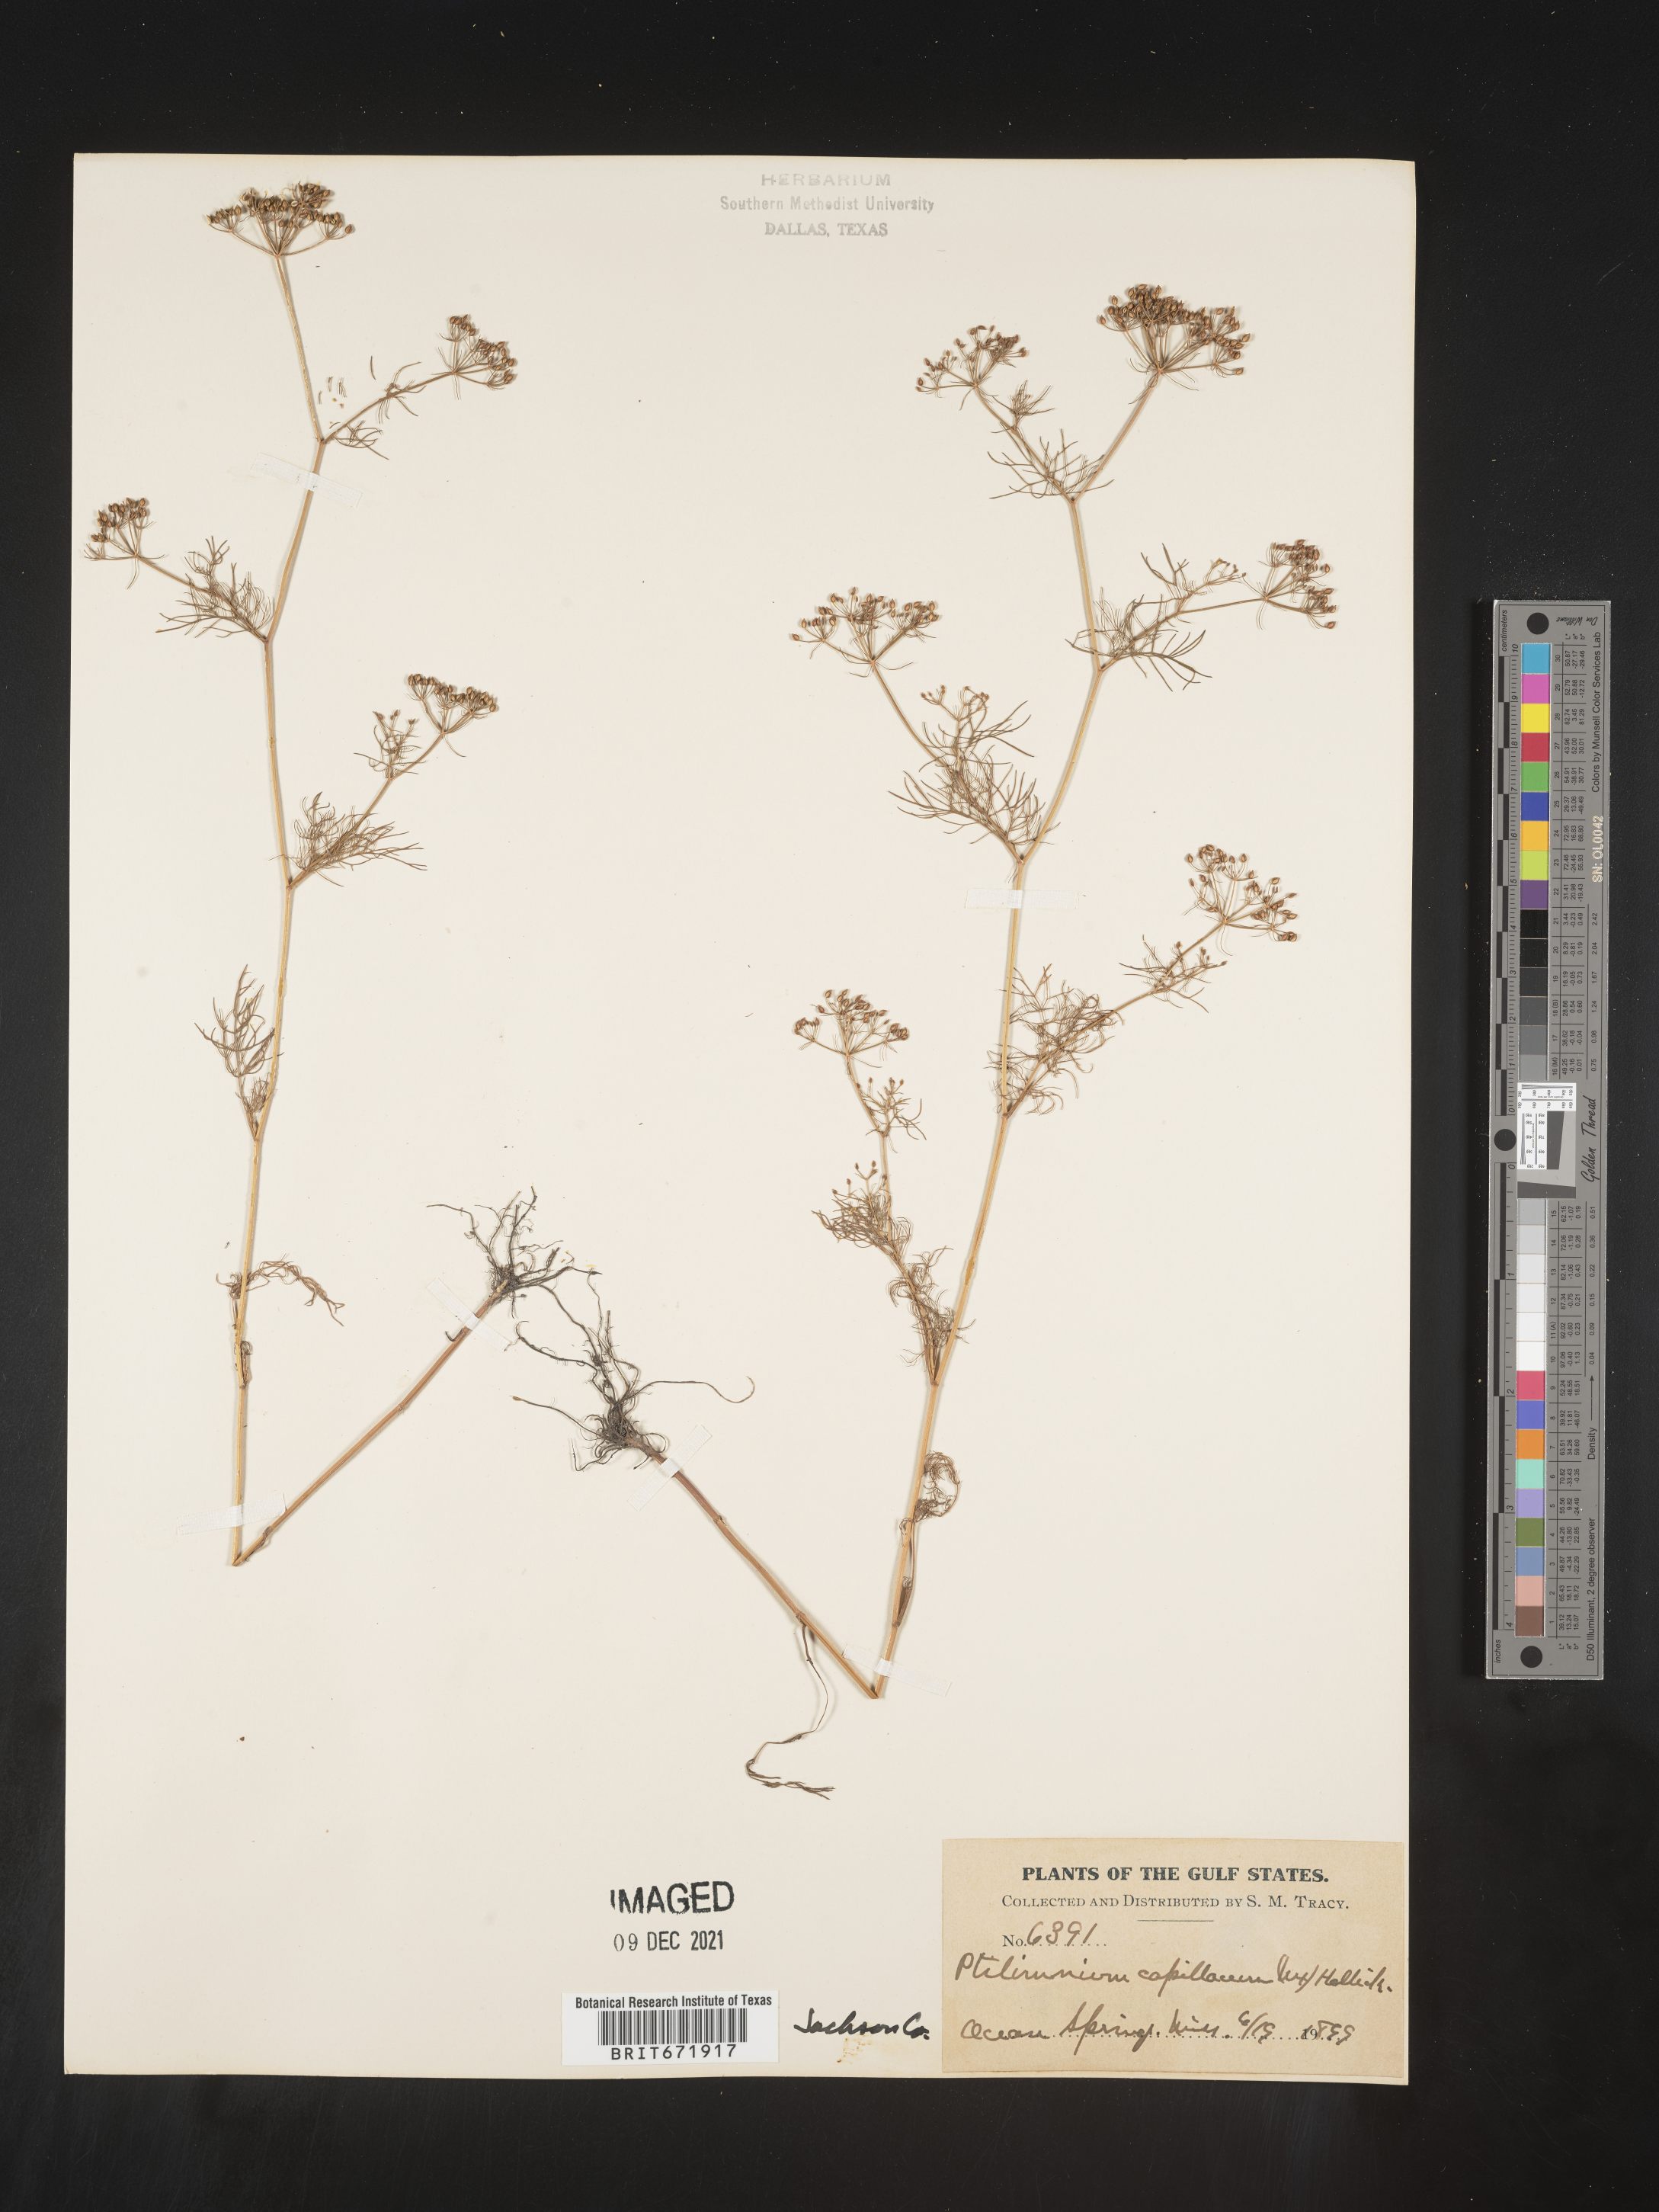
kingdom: Plantae
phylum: Tracheophyta
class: Magnoliopsida
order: Apiales
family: Apiaceae
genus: Ptilimnium
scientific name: Ptilimnium capillaceum
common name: Herbwilliam
